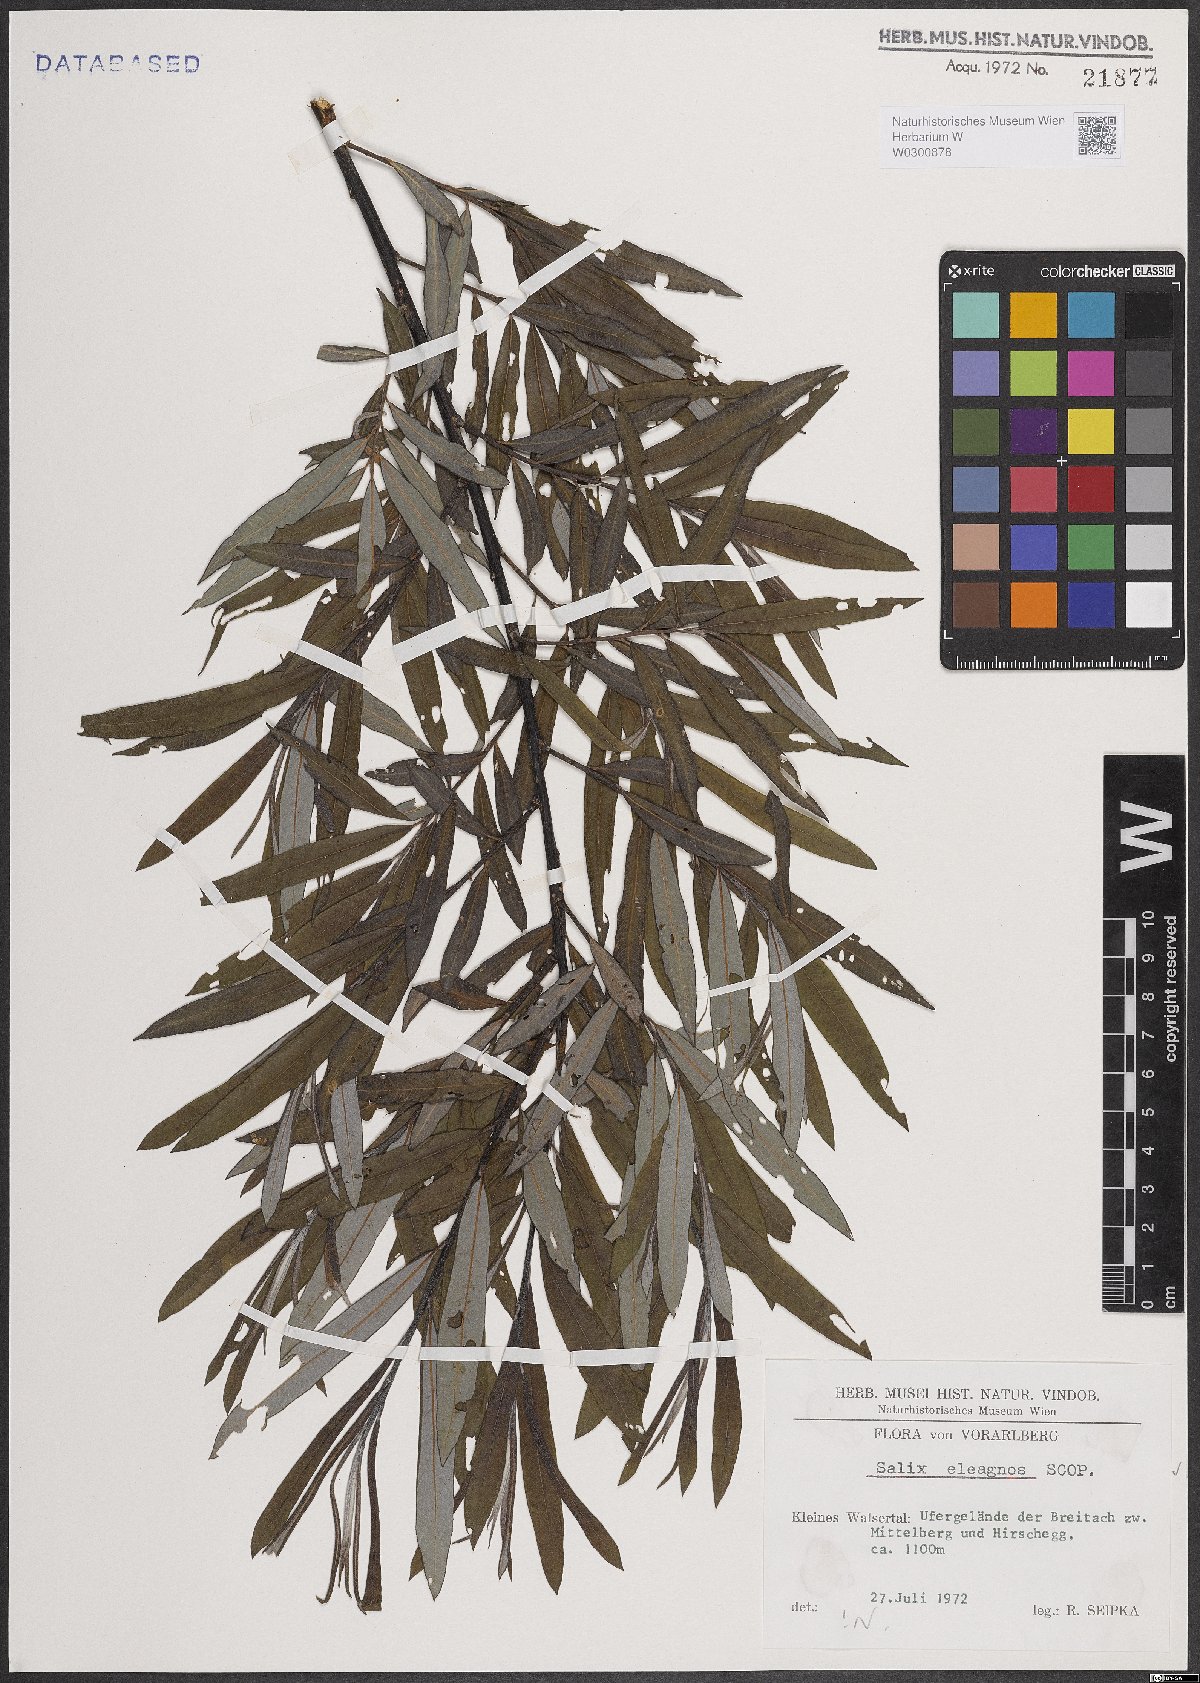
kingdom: Plantae
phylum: Tracheophyta
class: Magnoliopsida
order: Malpighiales
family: Salicaceae
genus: Salix
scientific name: Salix eleagnos
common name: Elaeagnus willow
